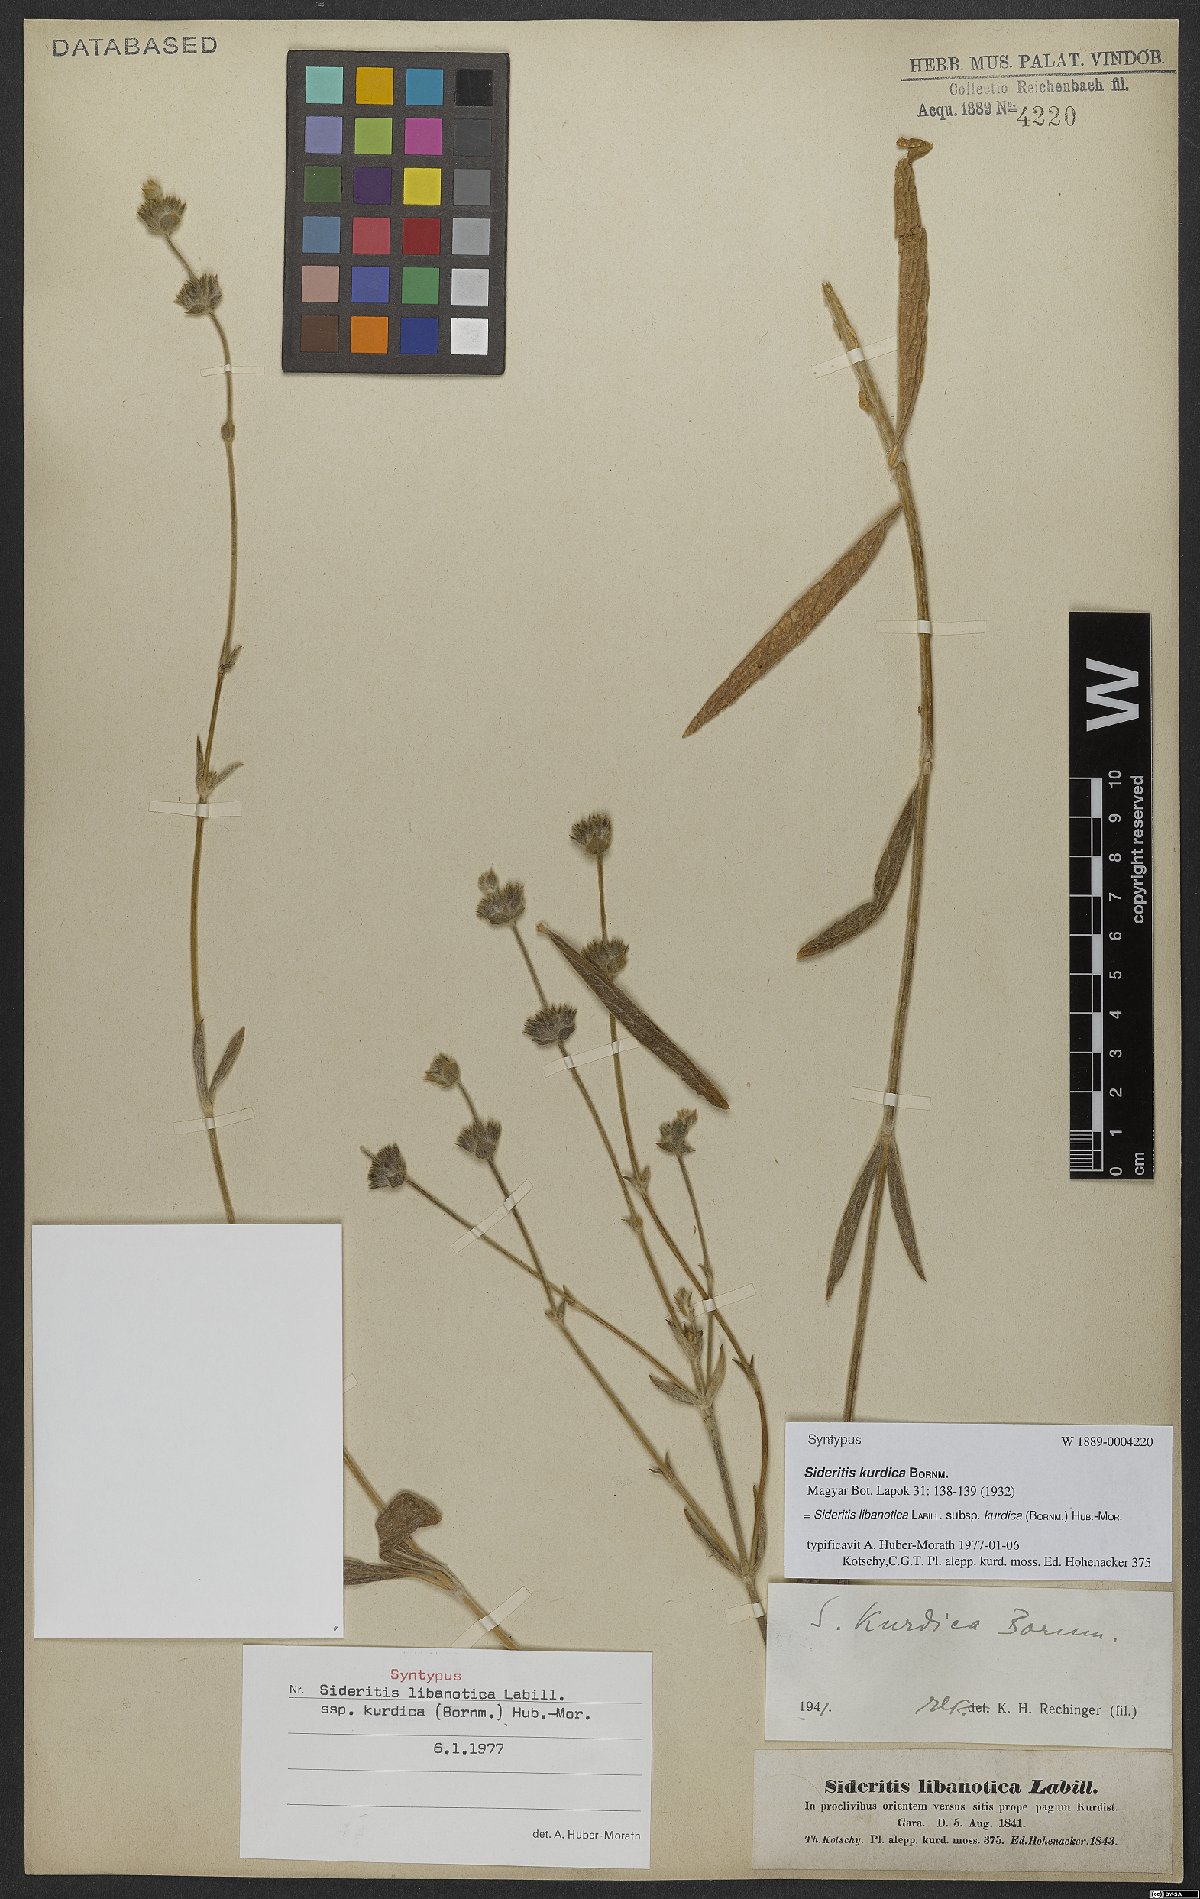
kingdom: Plantae
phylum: Tracheophyta
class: Magnoliopsida
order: Lamiales
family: Lamiaceae
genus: Sideritis
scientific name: Sideritis libanotica
